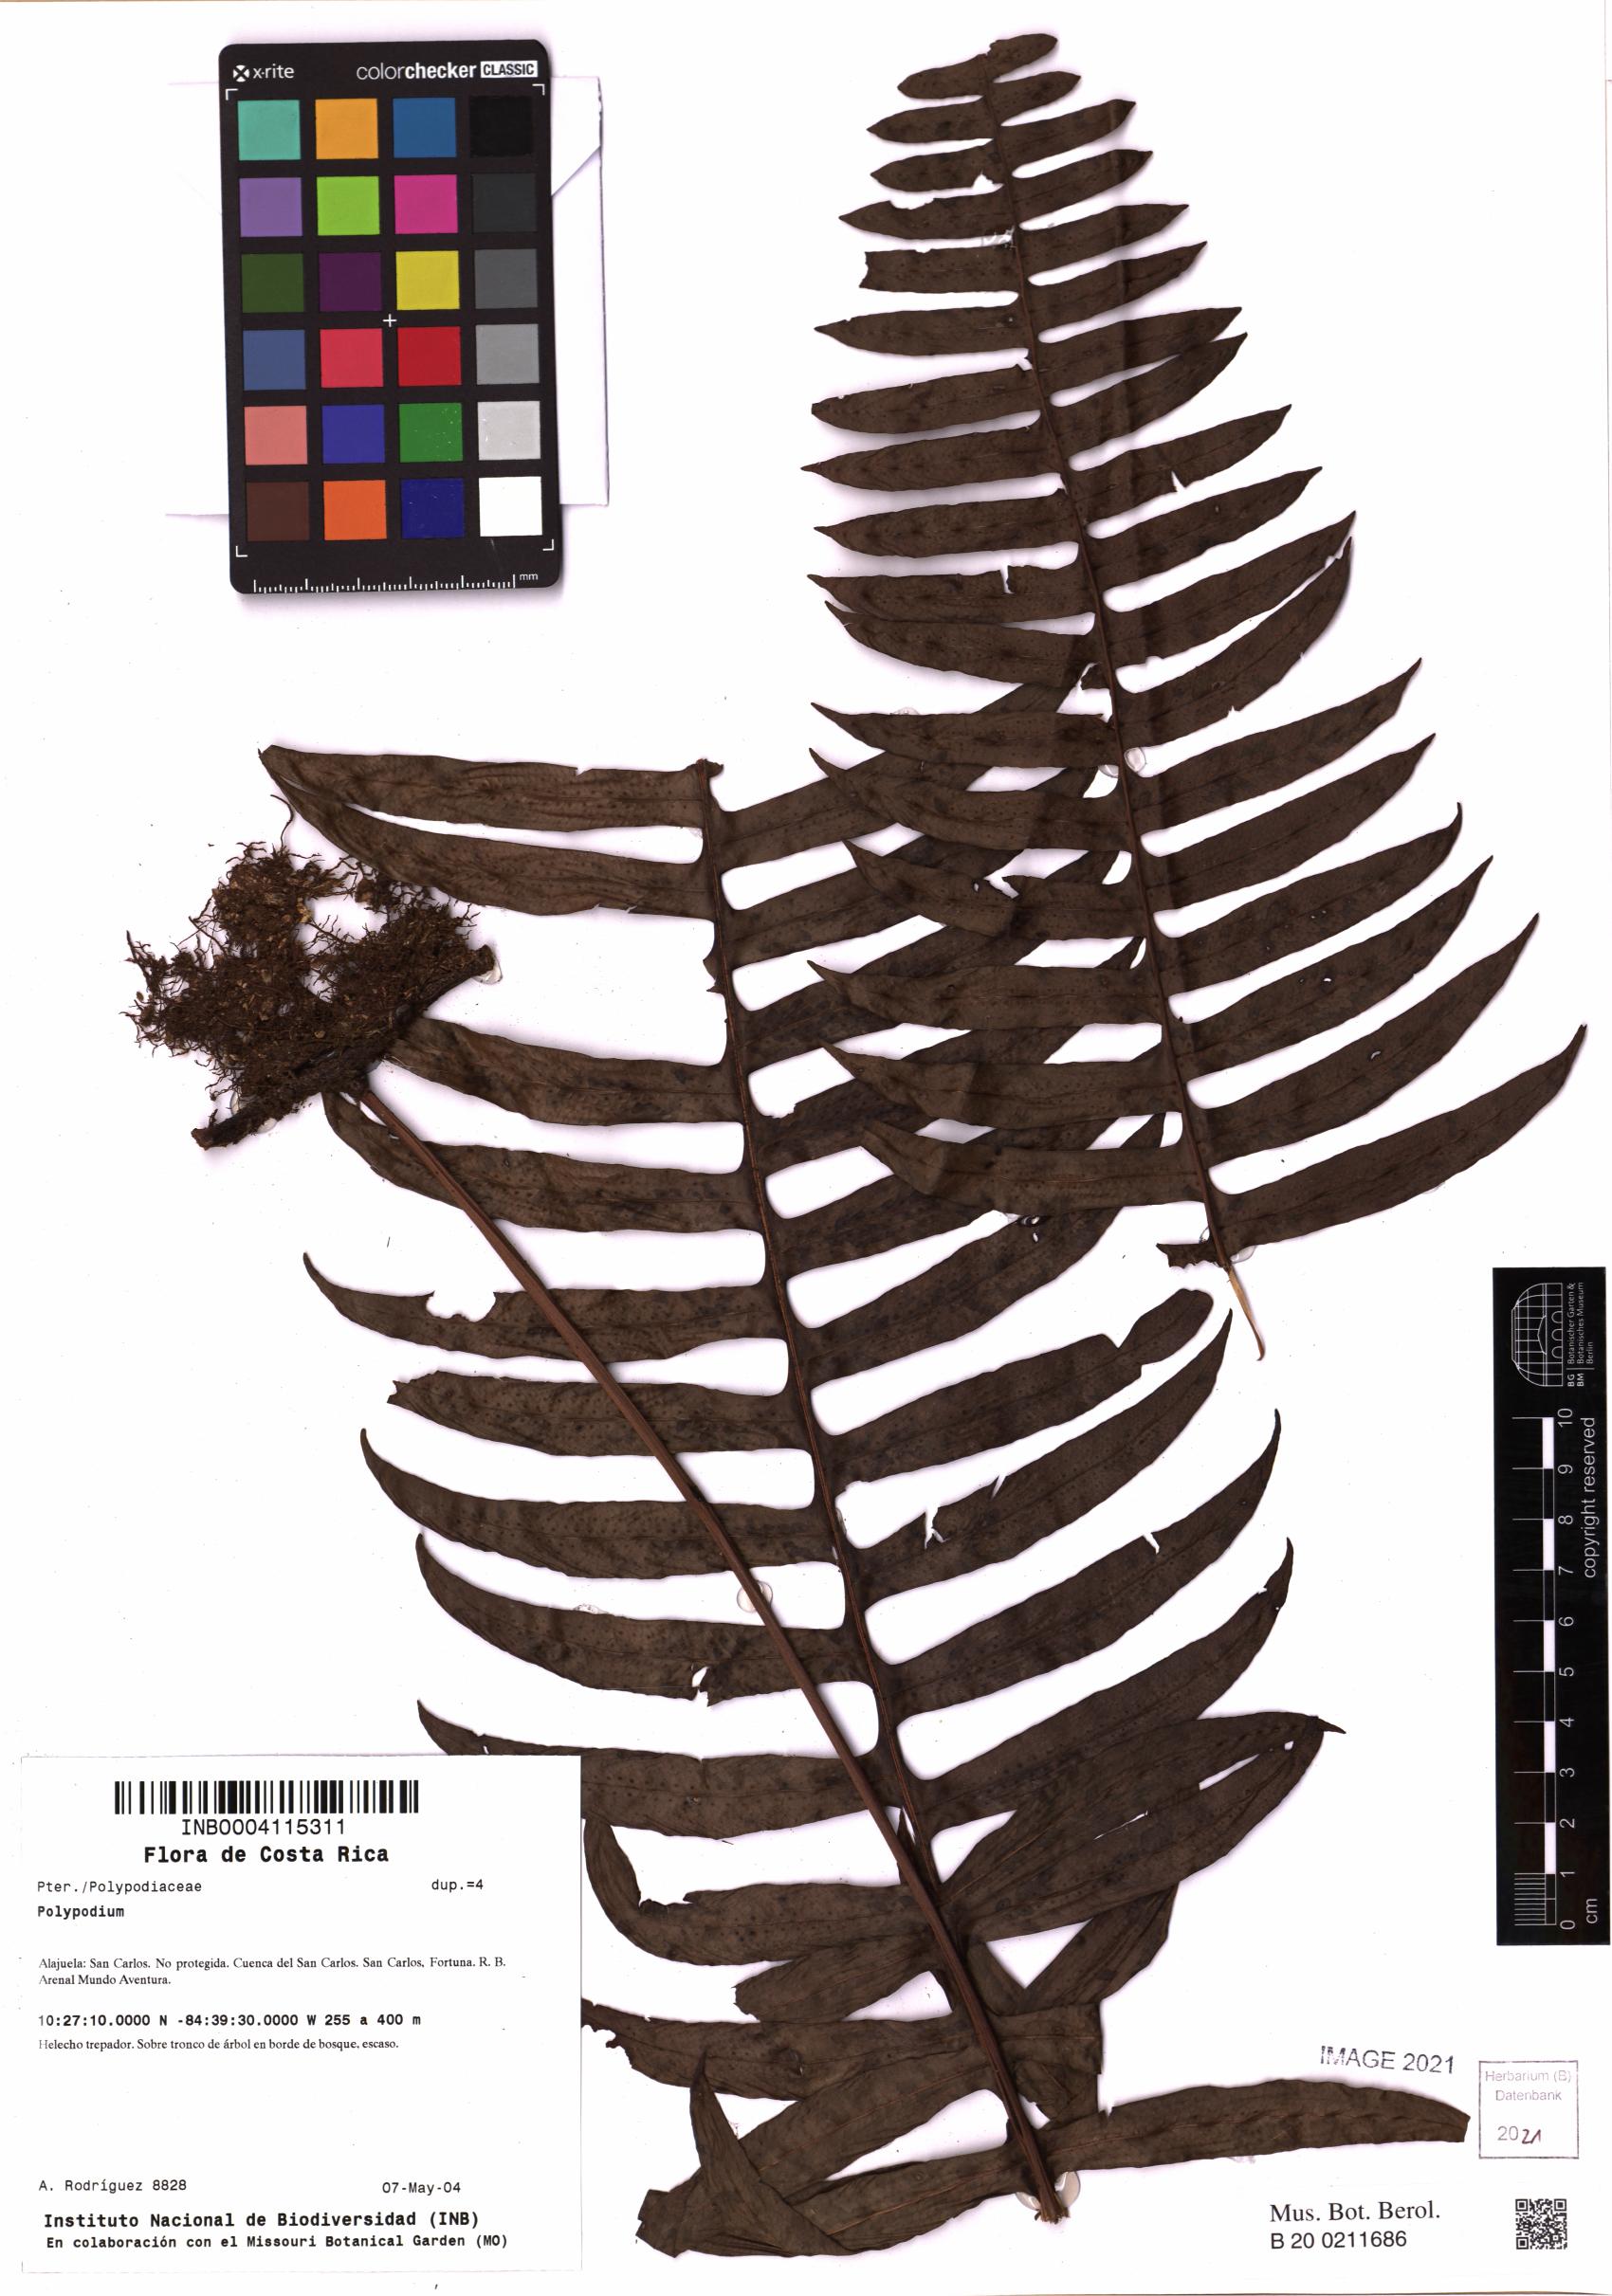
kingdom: Plantae
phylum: Tracheophyta
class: Polypodiopsida
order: Polypodiales
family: Polypodiaceae
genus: Polypodium
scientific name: Polypodium
